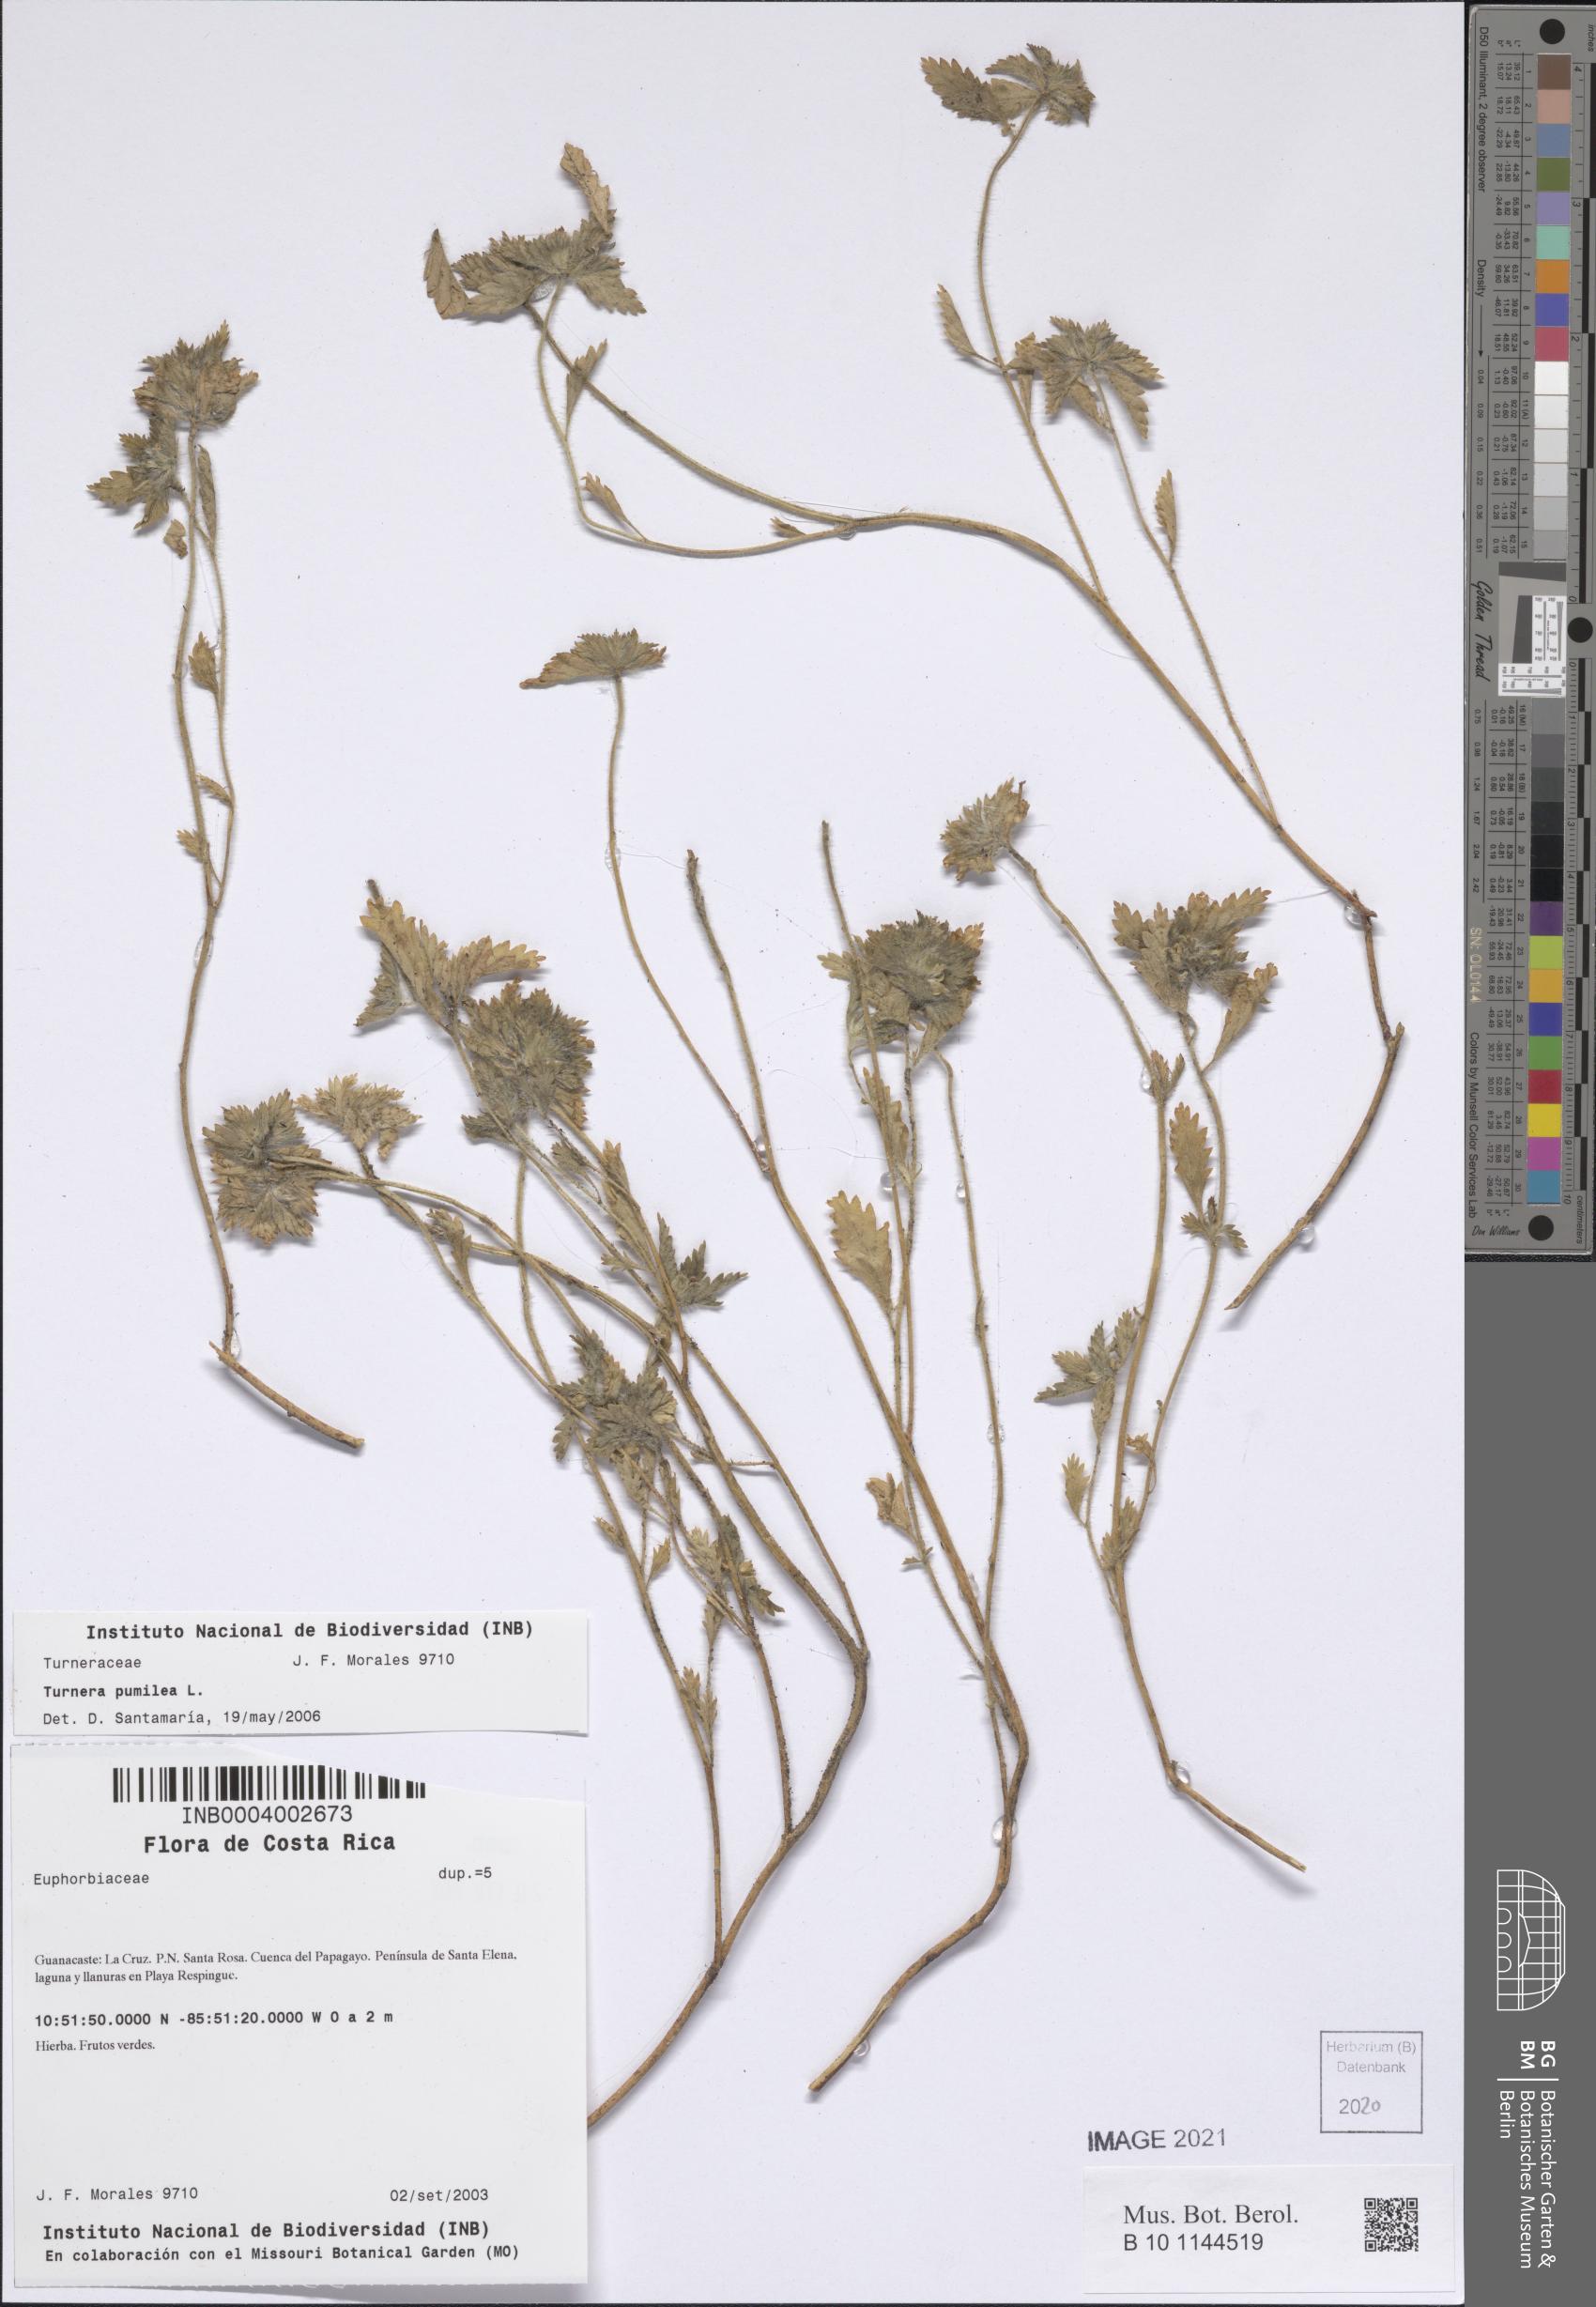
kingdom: Plantae
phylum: Tracheophyta
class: Magnoliopsida
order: Malpighiales
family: Turneraceae
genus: Turnera
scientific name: Turnera pumilea
